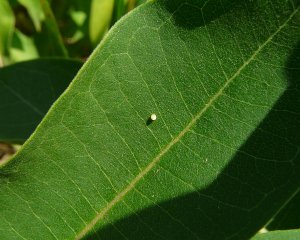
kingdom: Animalia
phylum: Arthropoda
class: Insecta
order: Lepidoptera
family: Nymphalidae
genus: Danaus
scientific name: Danaus plexippus
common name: Monarch
